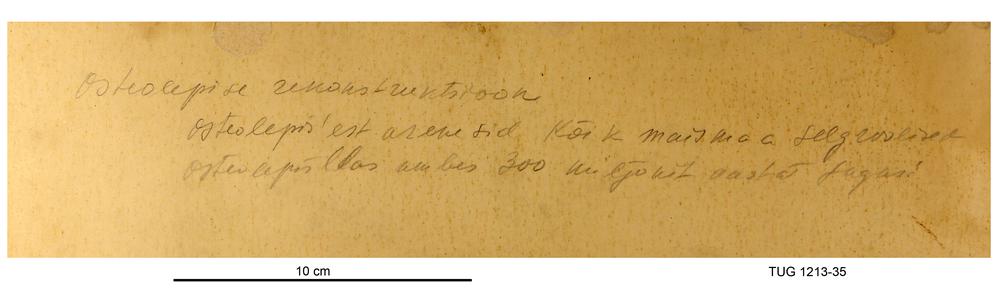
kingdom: Animalia
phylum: Chordata
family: Osteolepididae
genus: Osteolepis
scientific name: Osteolepis
